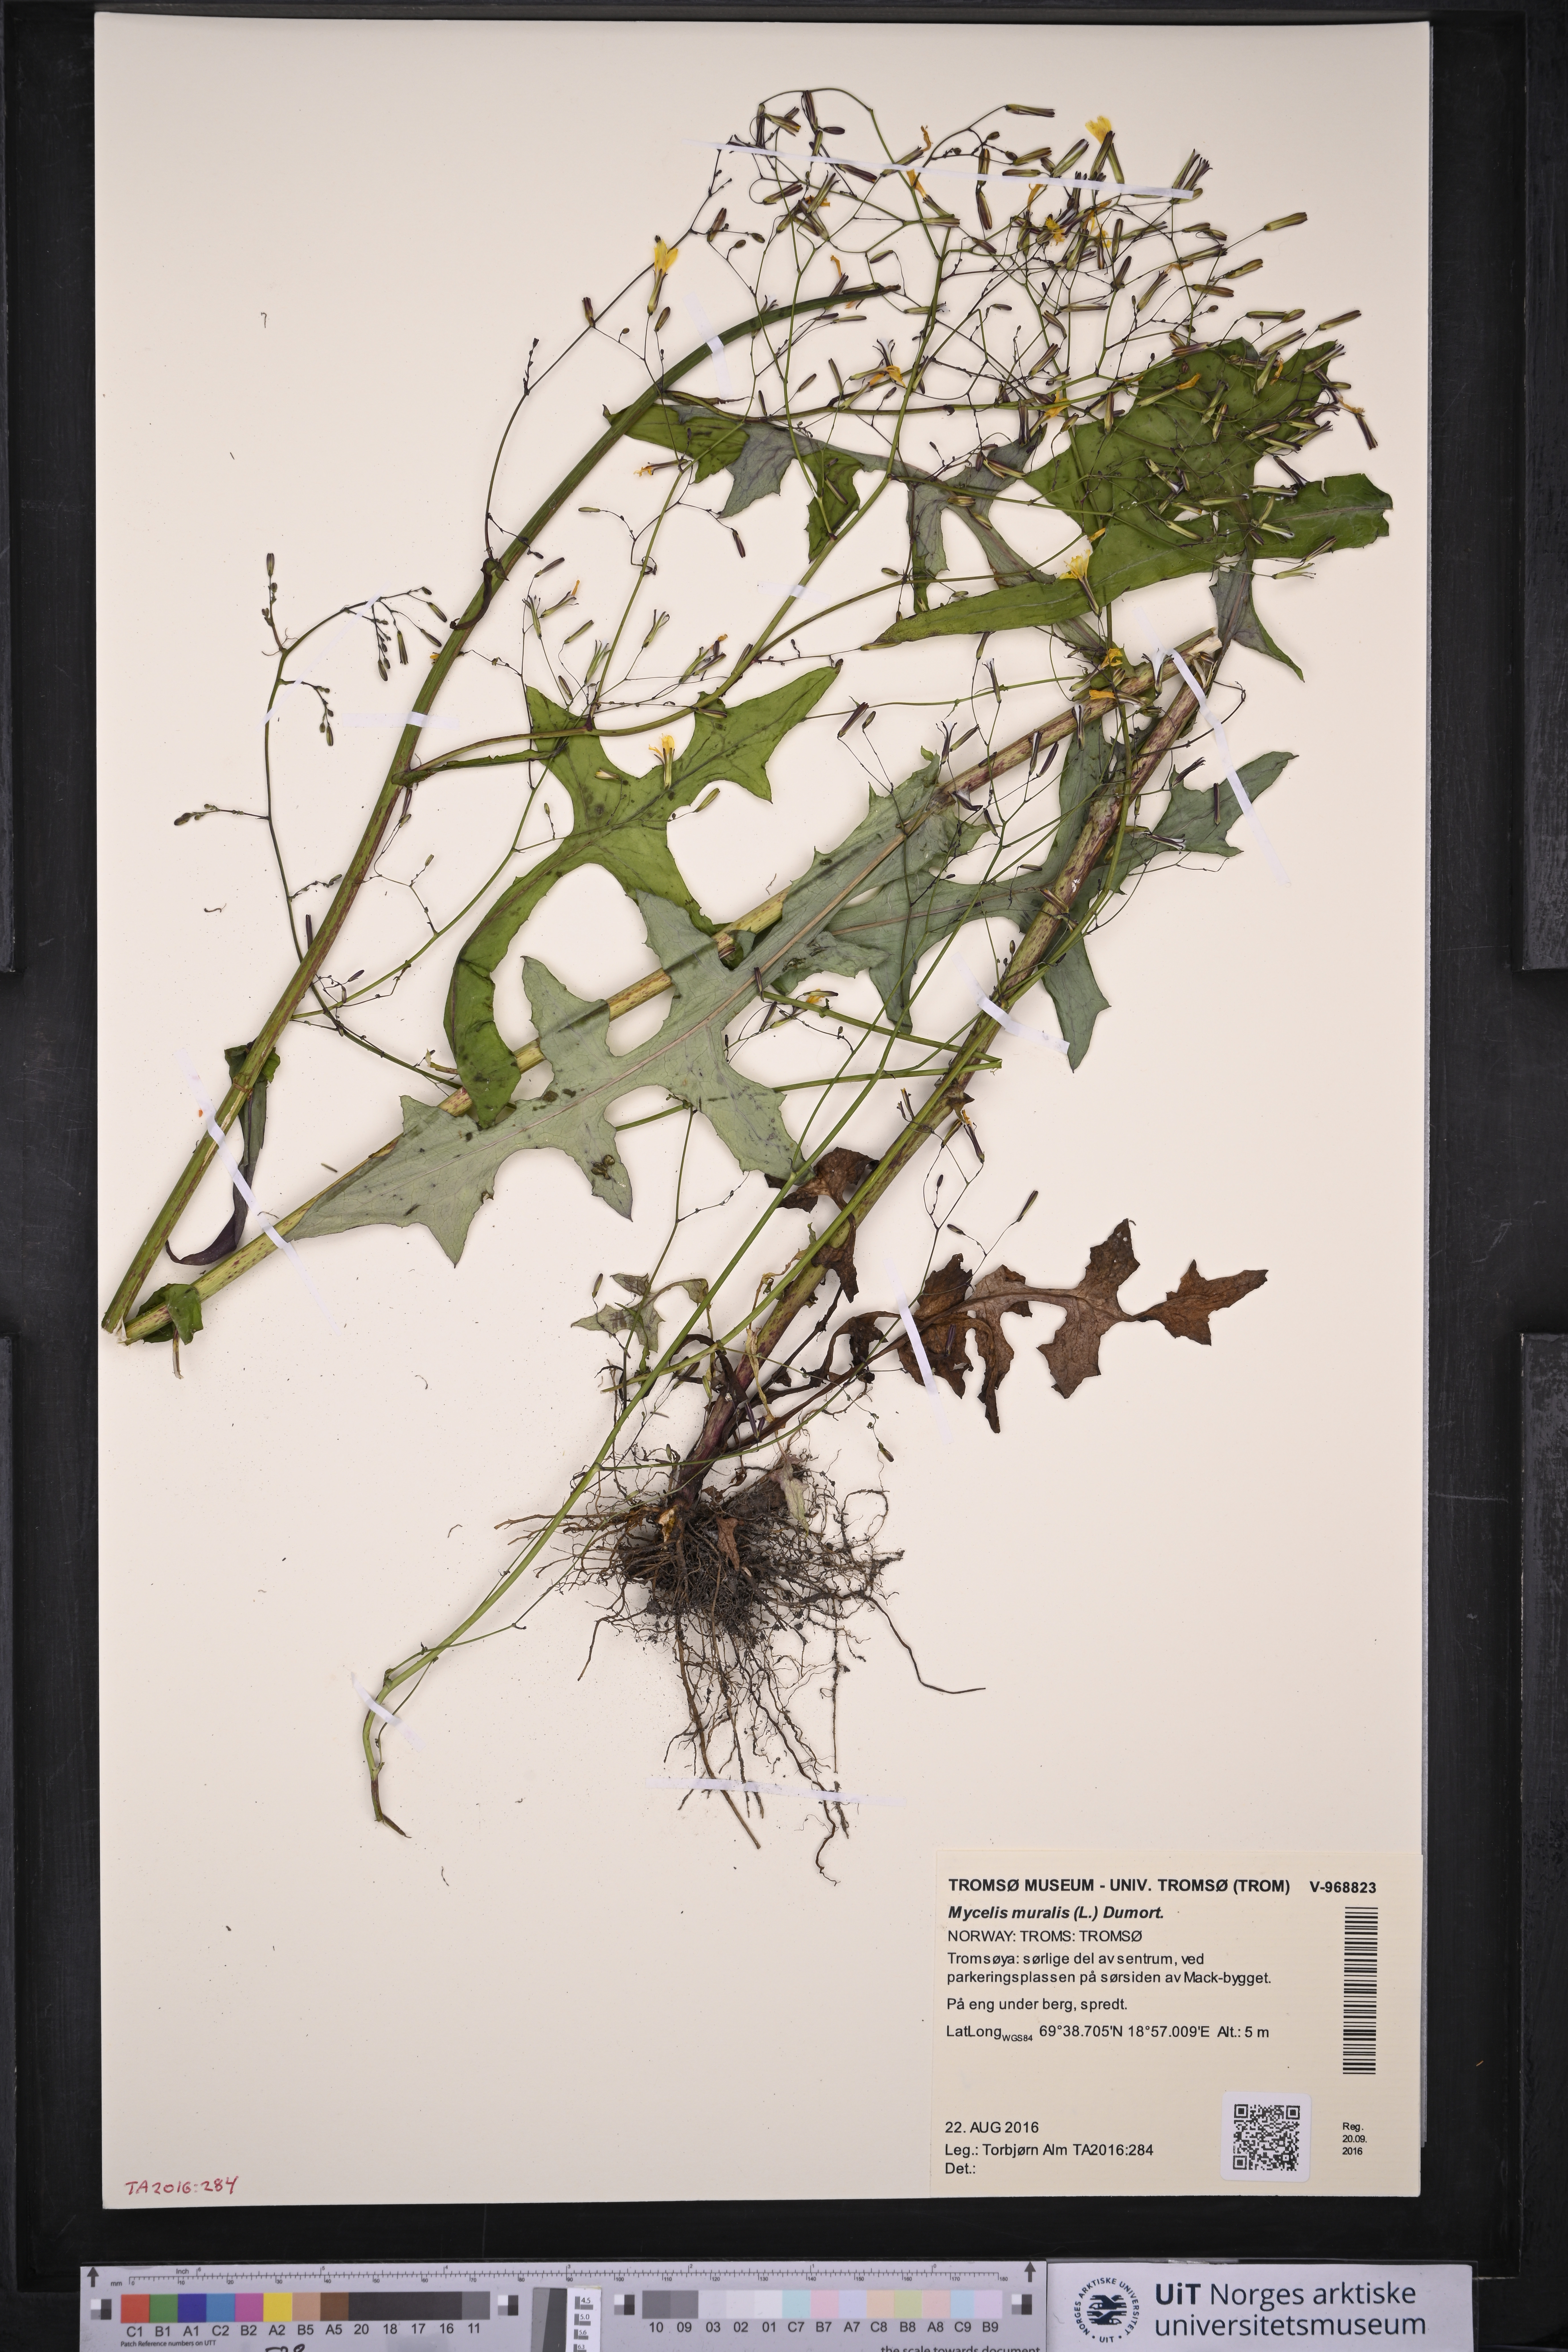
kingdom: Plantae
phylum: Tracheophyta
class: Magnoliopsida
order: Asterales
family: Asteraceae
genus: Mycelis
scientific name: Mycelis muralis
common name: Wall lettuce
